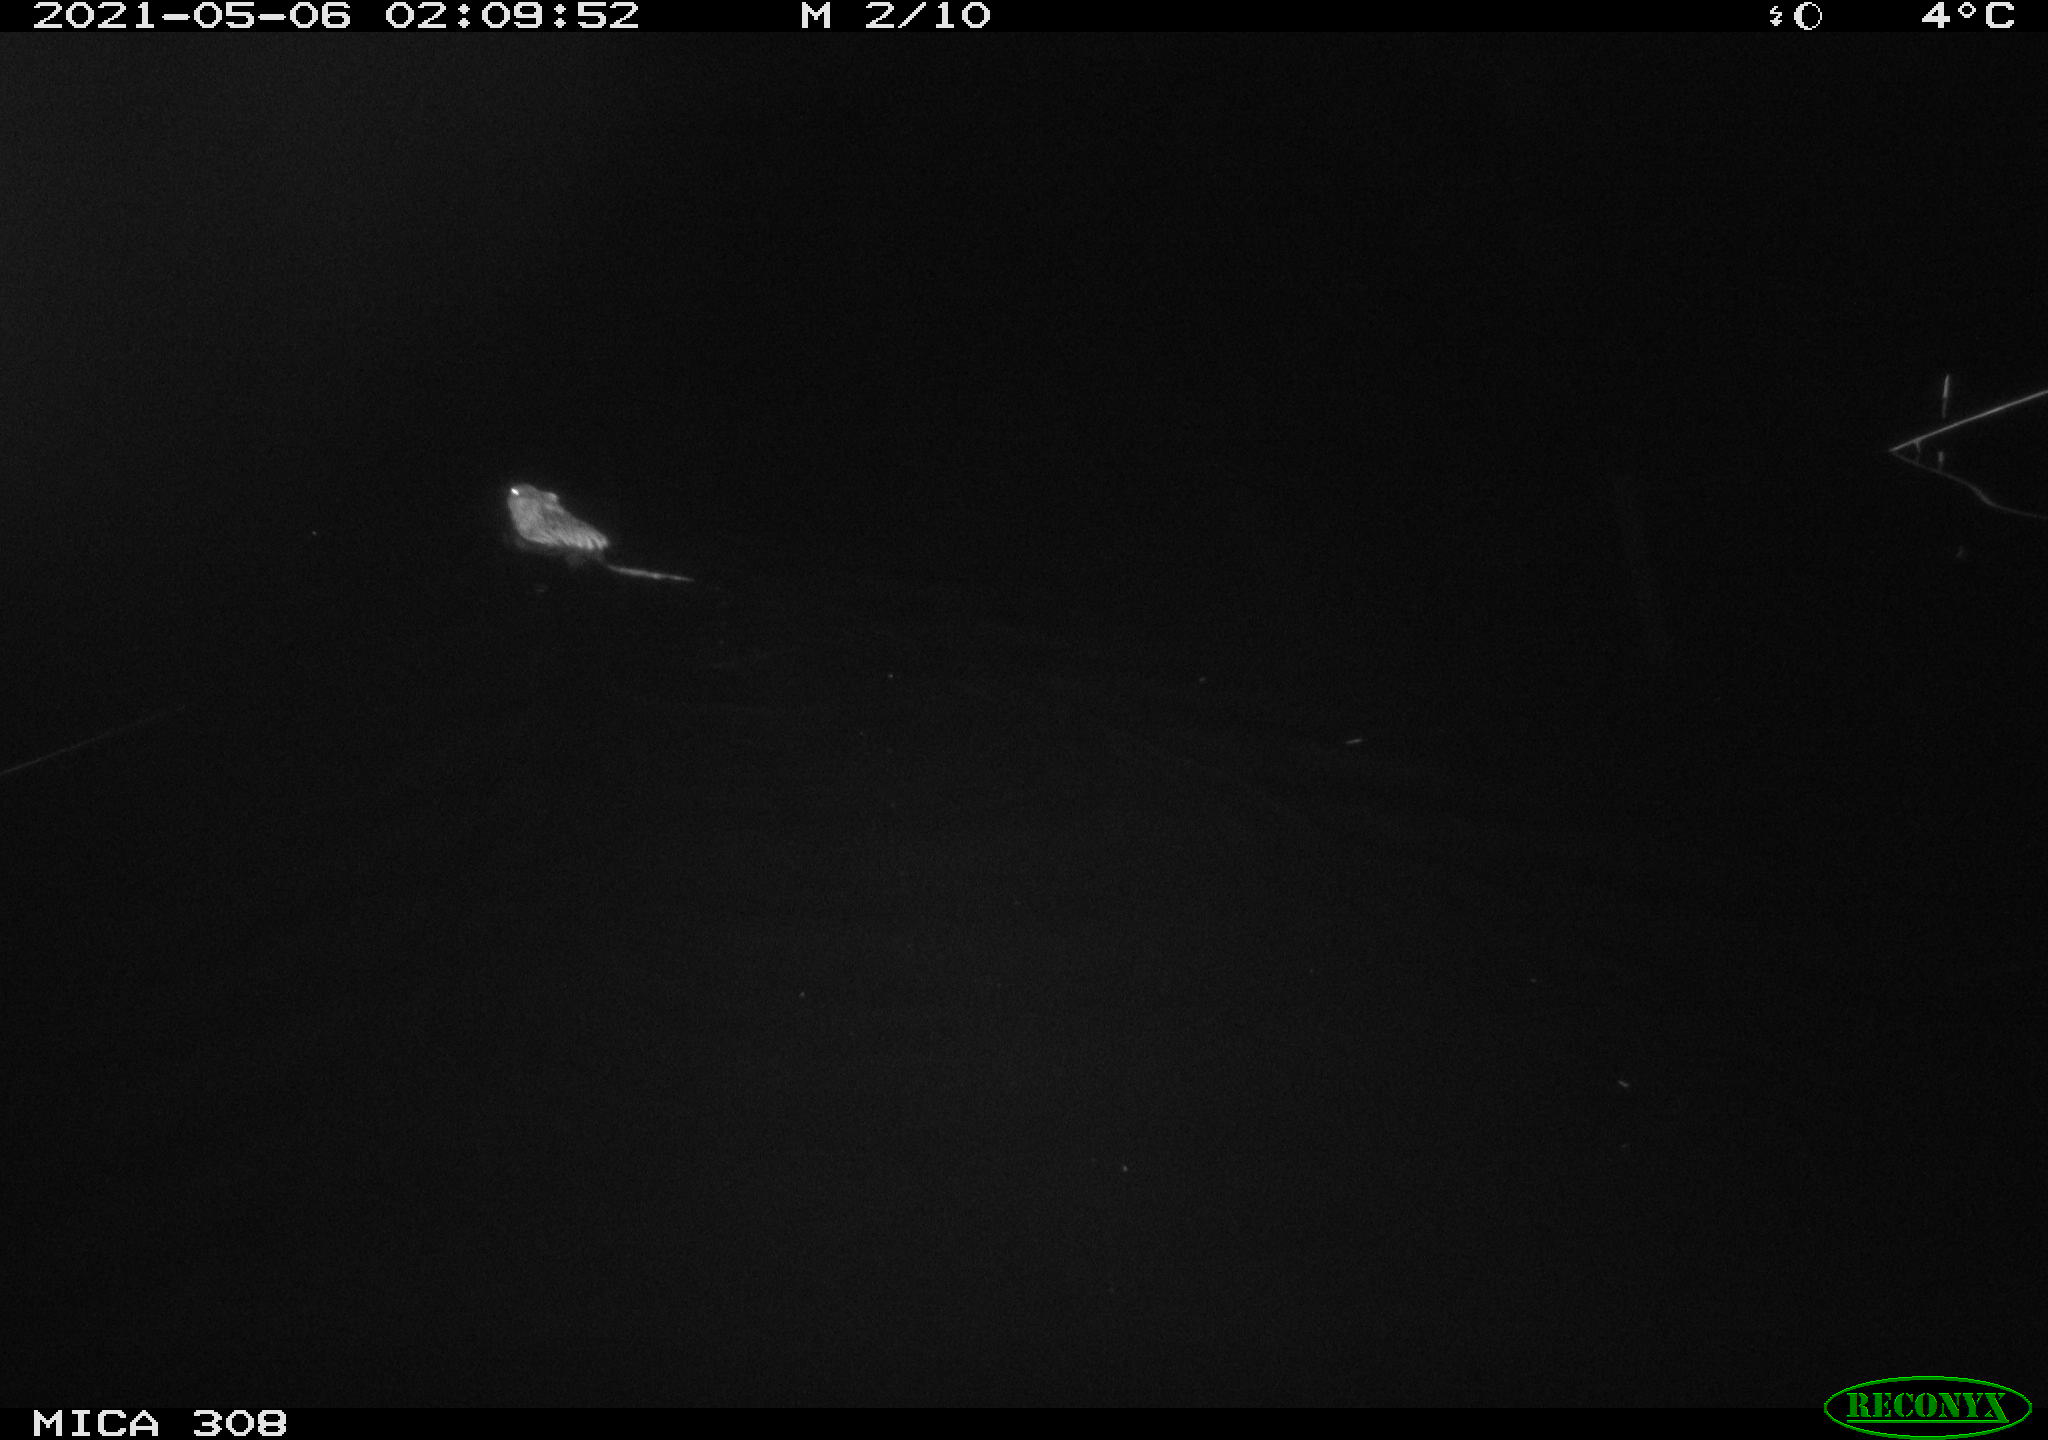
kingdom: Animalia
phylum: Chordata
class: Mammalia
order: Rodentia
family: Cricetidae
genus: Ondatra
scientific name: Ondatra zibethicus
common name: Muskrat
